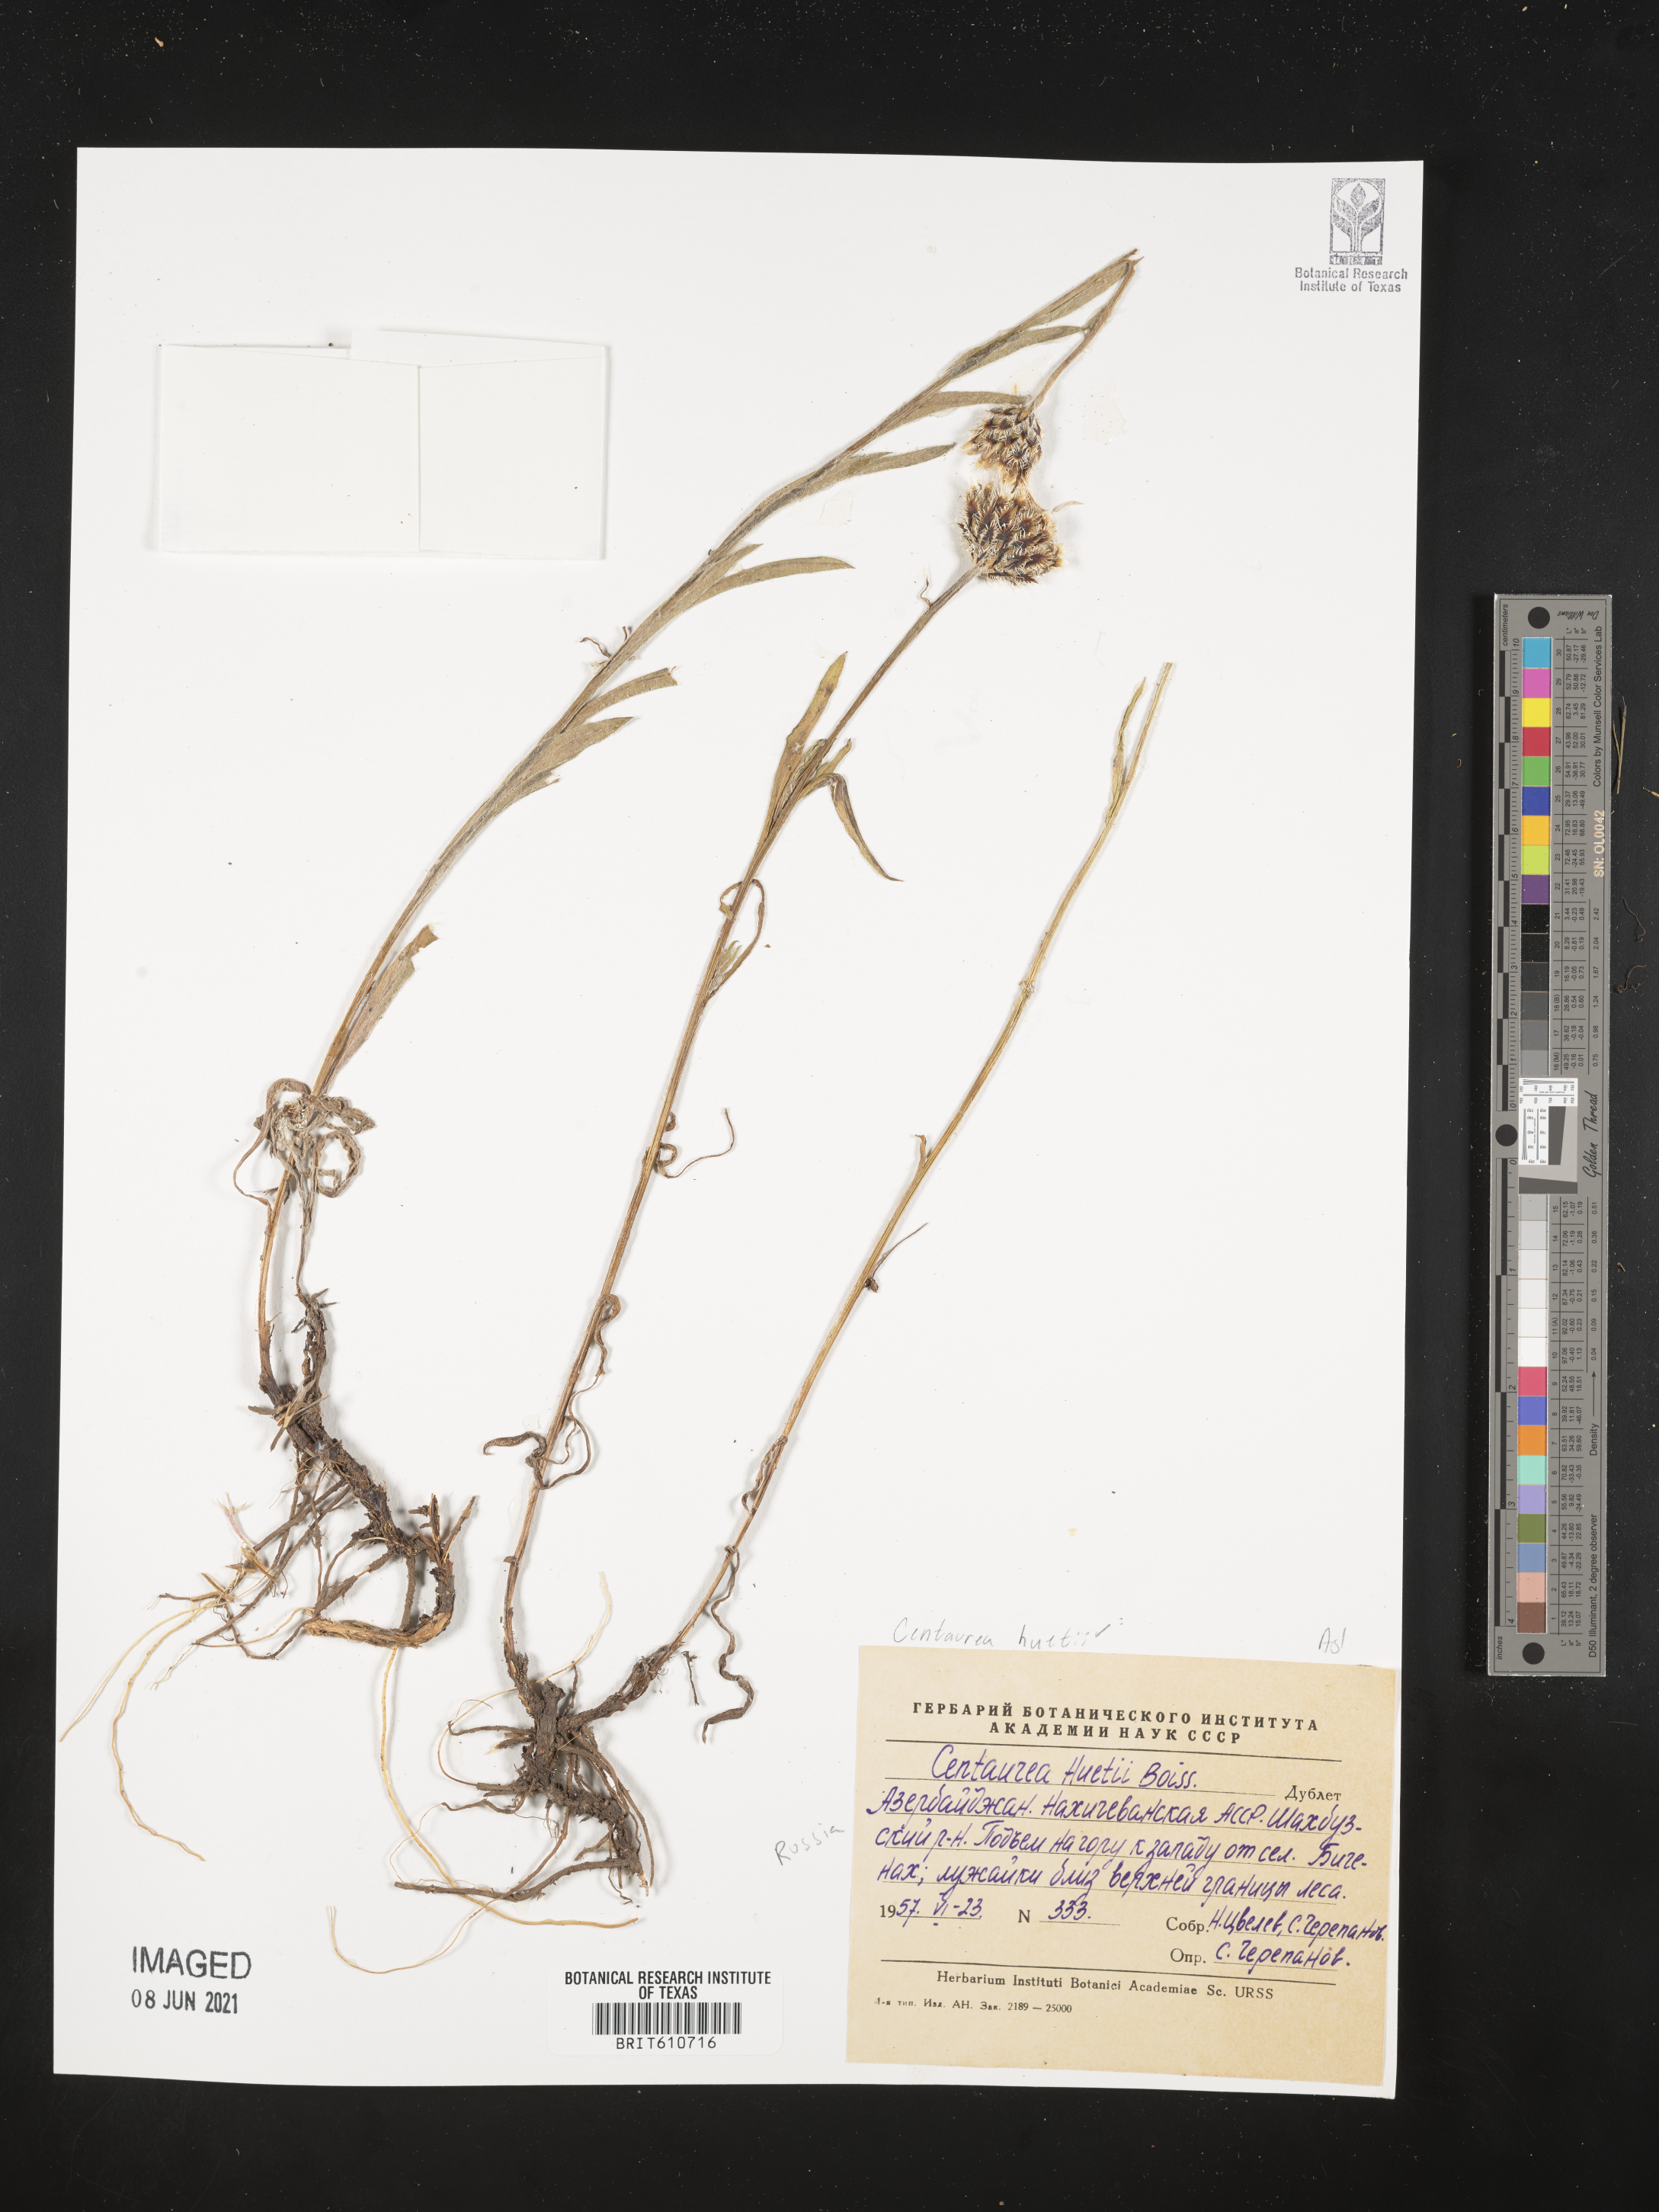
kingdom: Plantae
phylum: Tracheophyta
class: Magnoliopsida
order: Asterales
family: Asteraceae
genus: Centaurea
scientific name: Centaurea atrata
